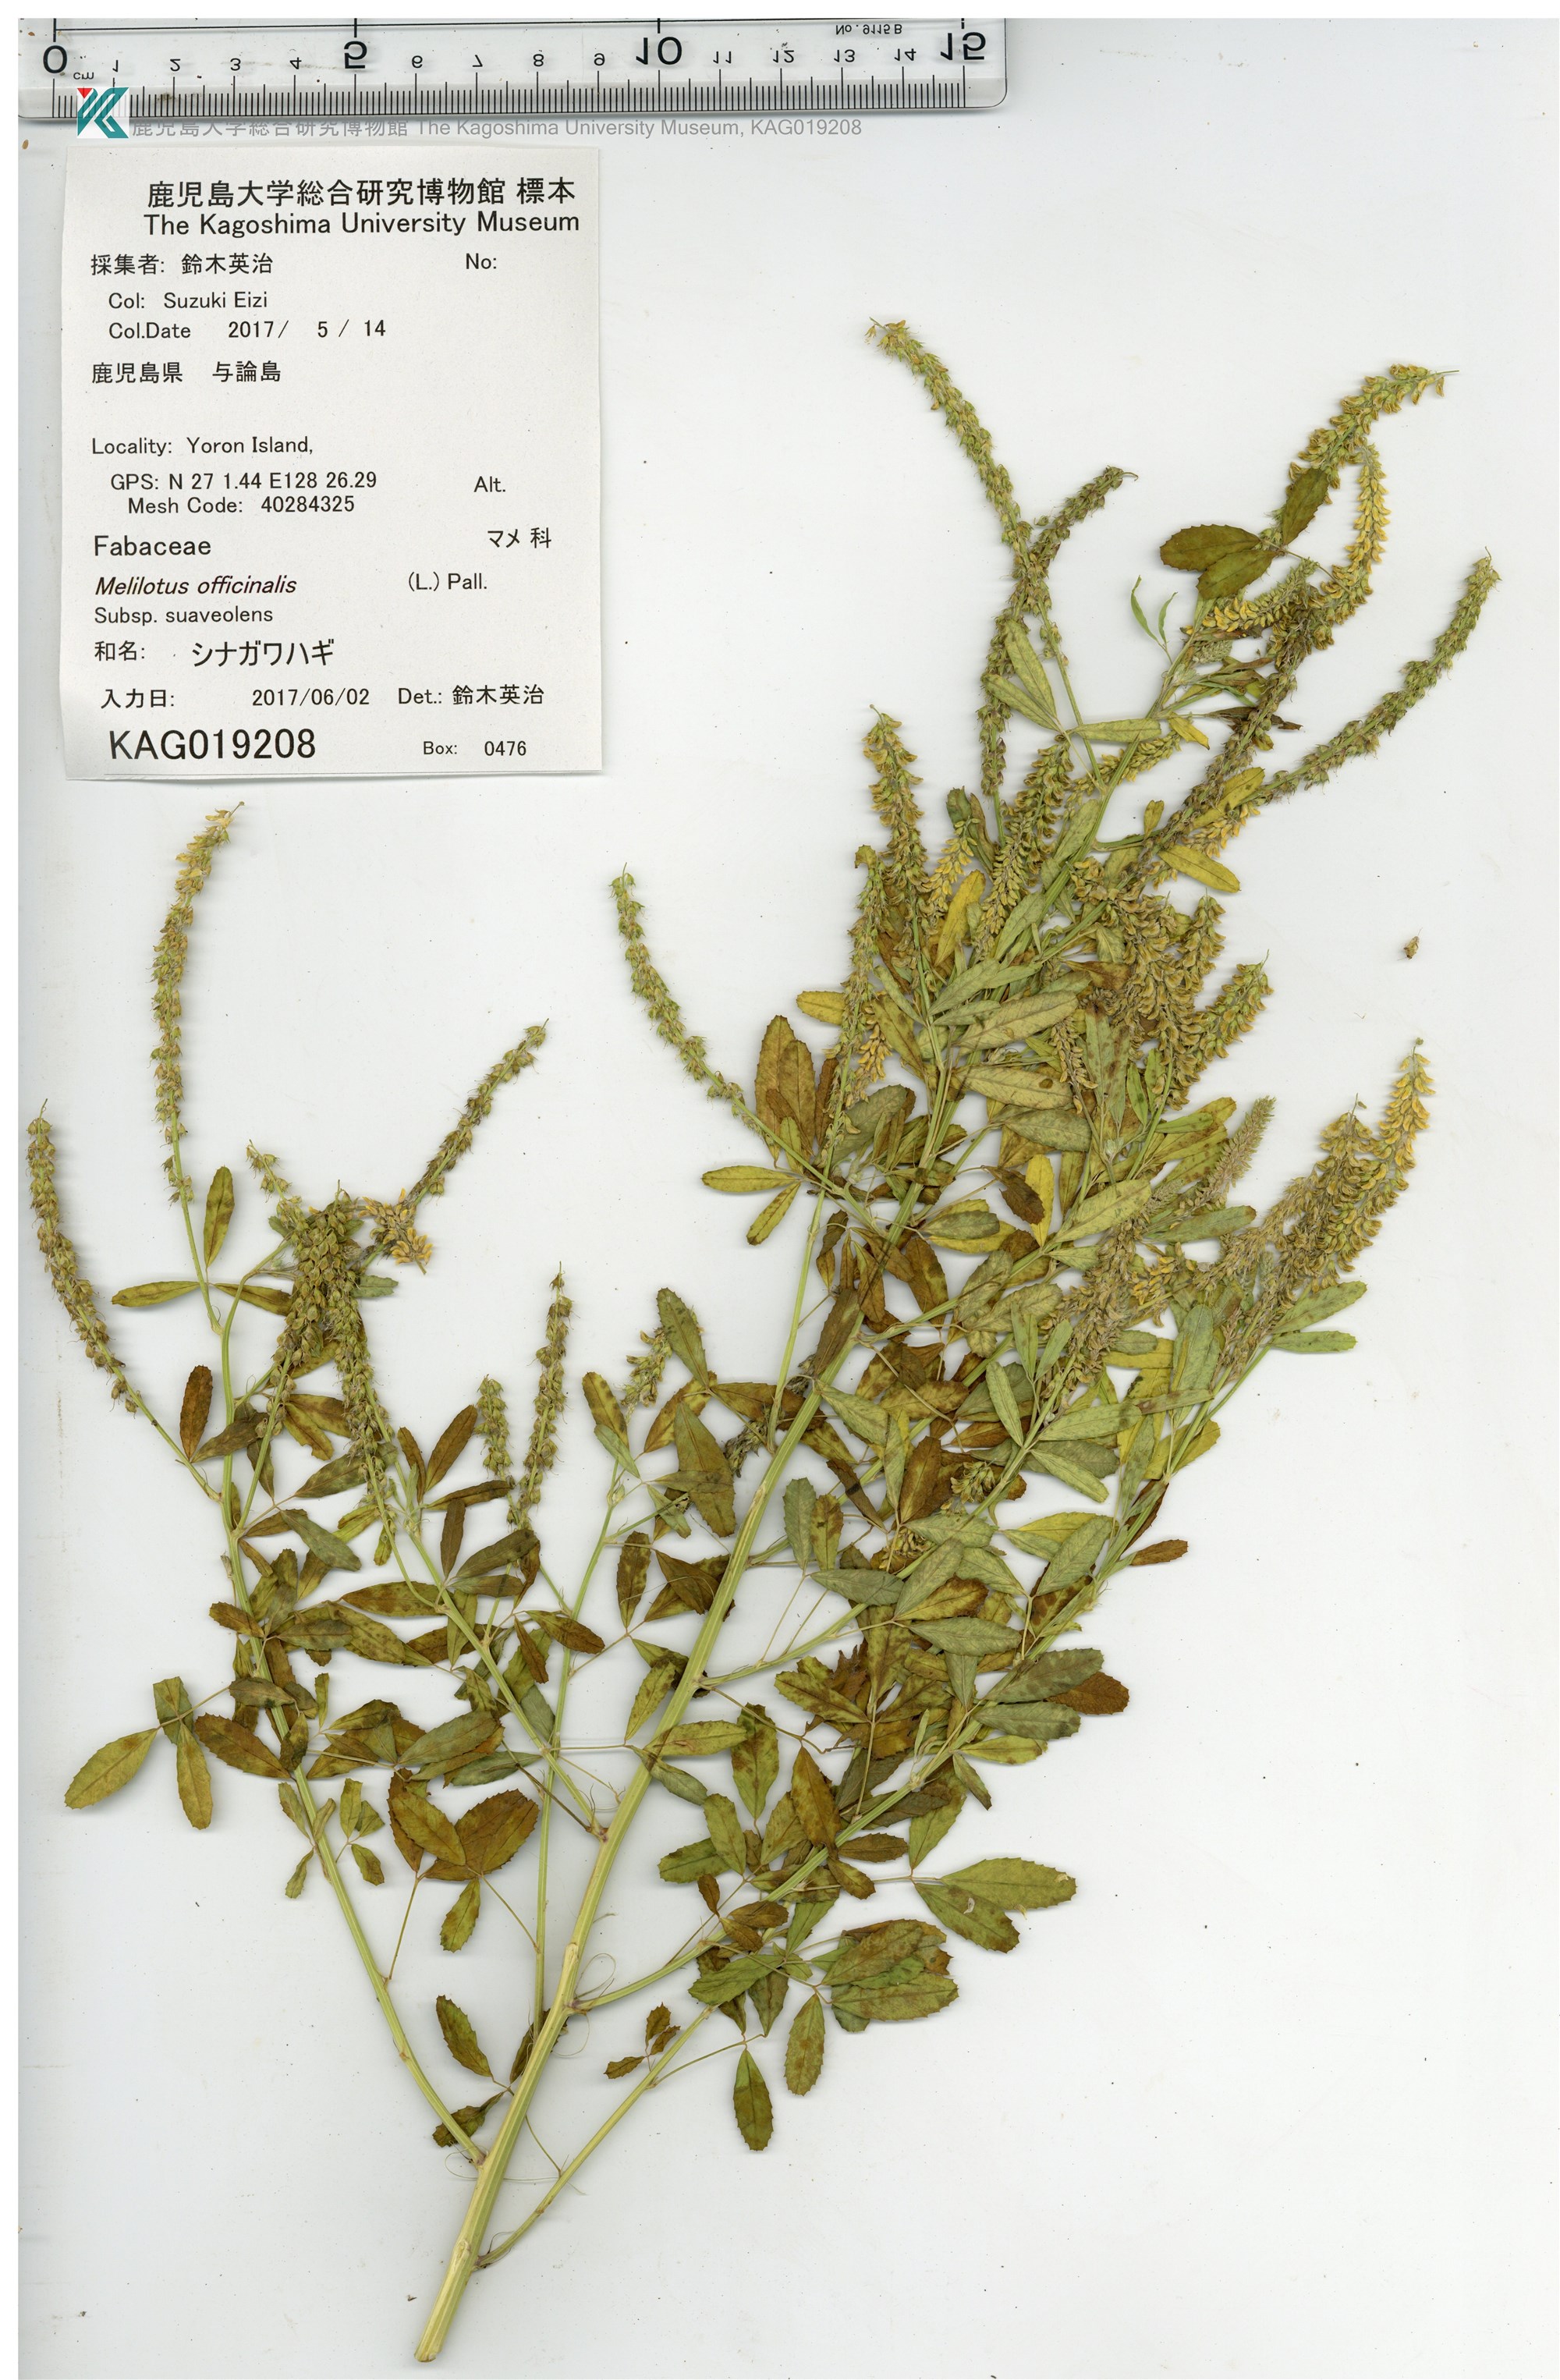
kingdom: Plantae
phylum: Tracheophyta
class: Magnoliopsida
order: Fabales
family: Fabaceae
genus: Melilotus
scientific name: Melilotus suaveolens
